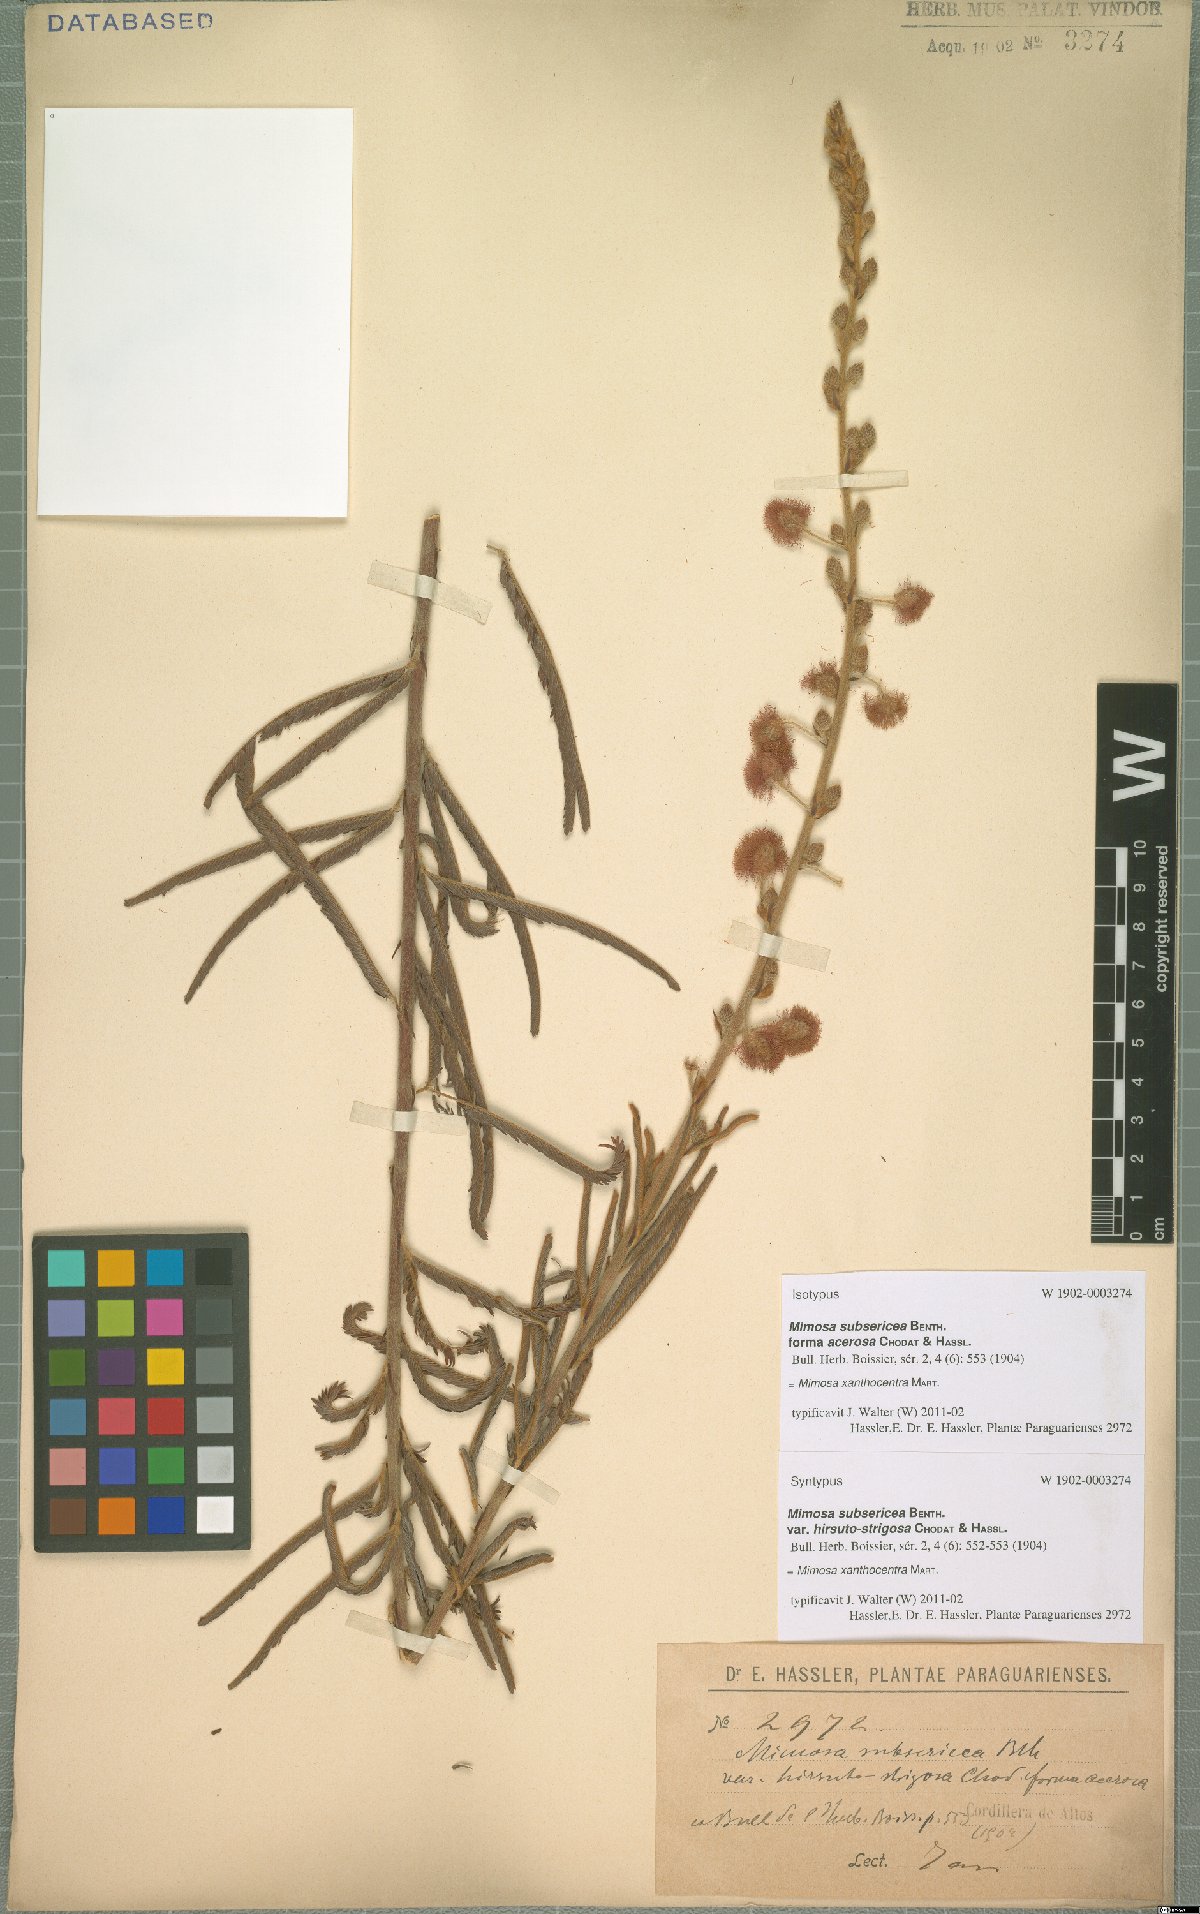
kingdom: Plantae
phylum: Tracheophyta
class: Magnoliopsida
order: Fabales
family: Fabaceae
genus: Mimosa
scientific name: Mimosa xanthocentra
